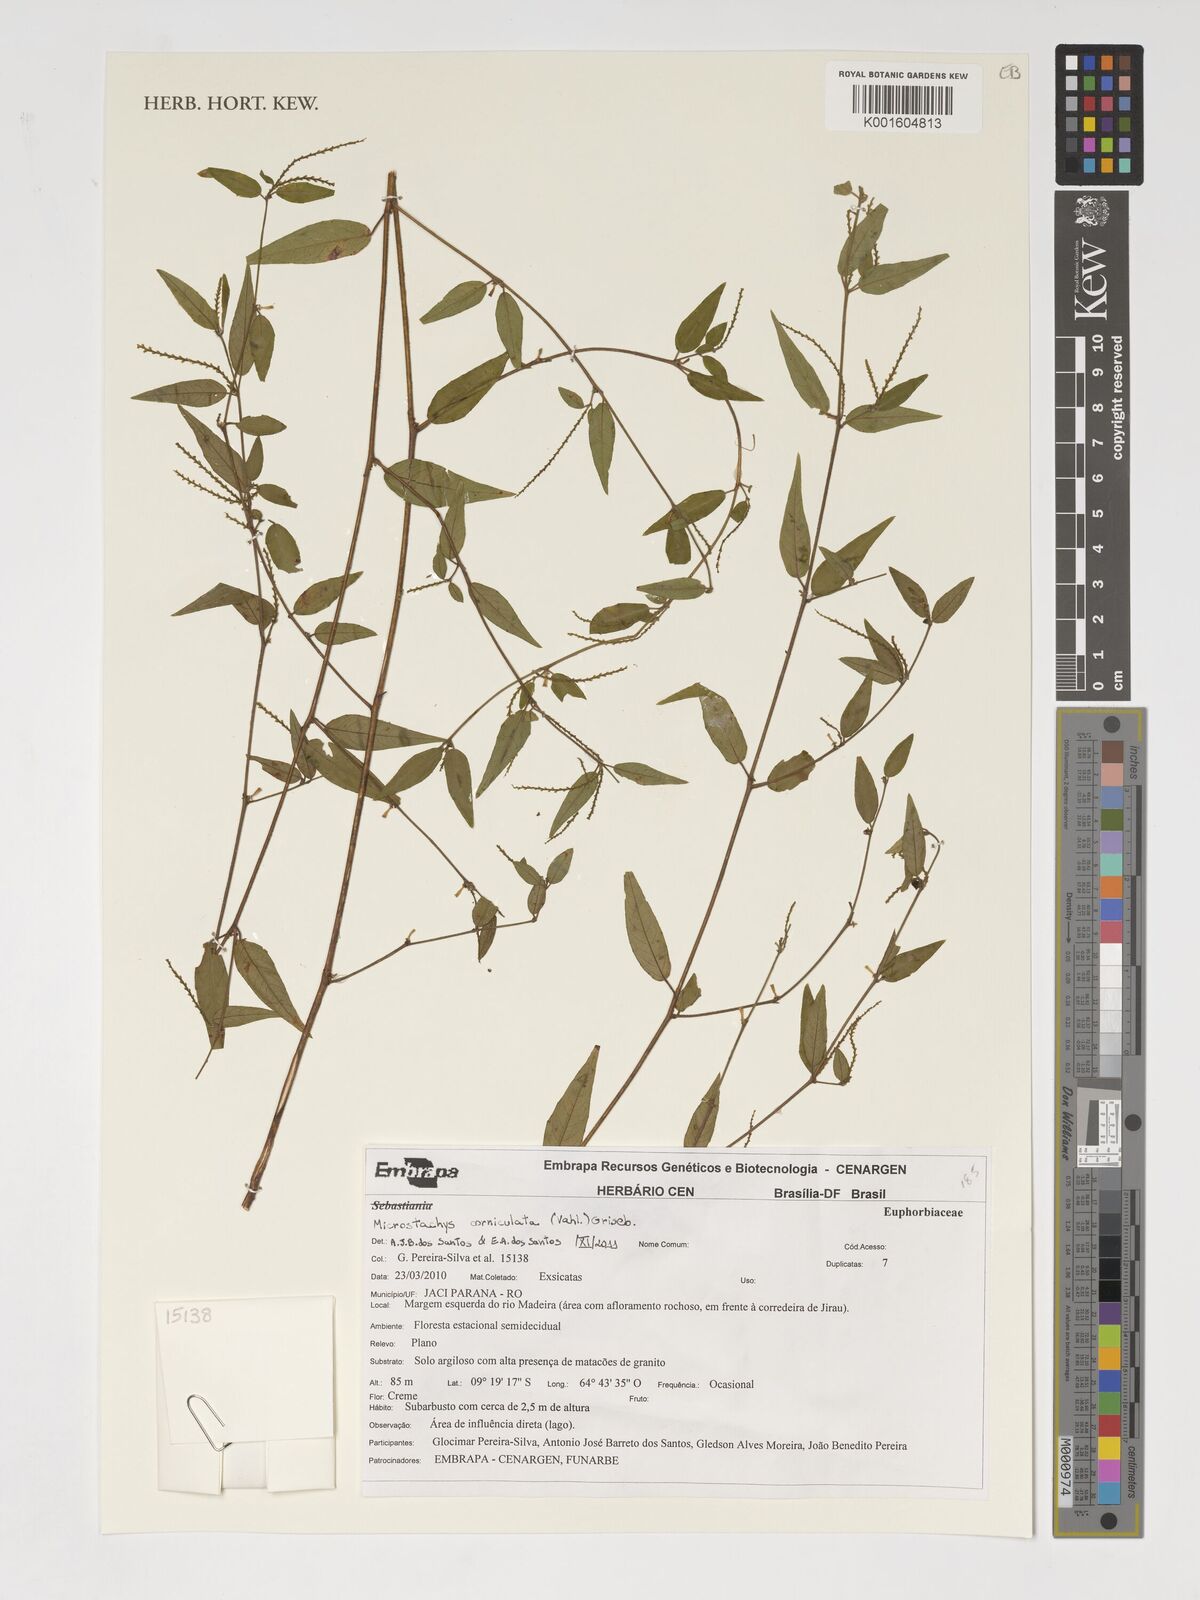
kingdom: Plantae
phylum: Tracheophyta
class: Magnoliopsida
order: Malpighiales
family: Euphorbiaceae
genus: Microstachys
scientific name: Microstachys corniculata
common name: Hato tejas
